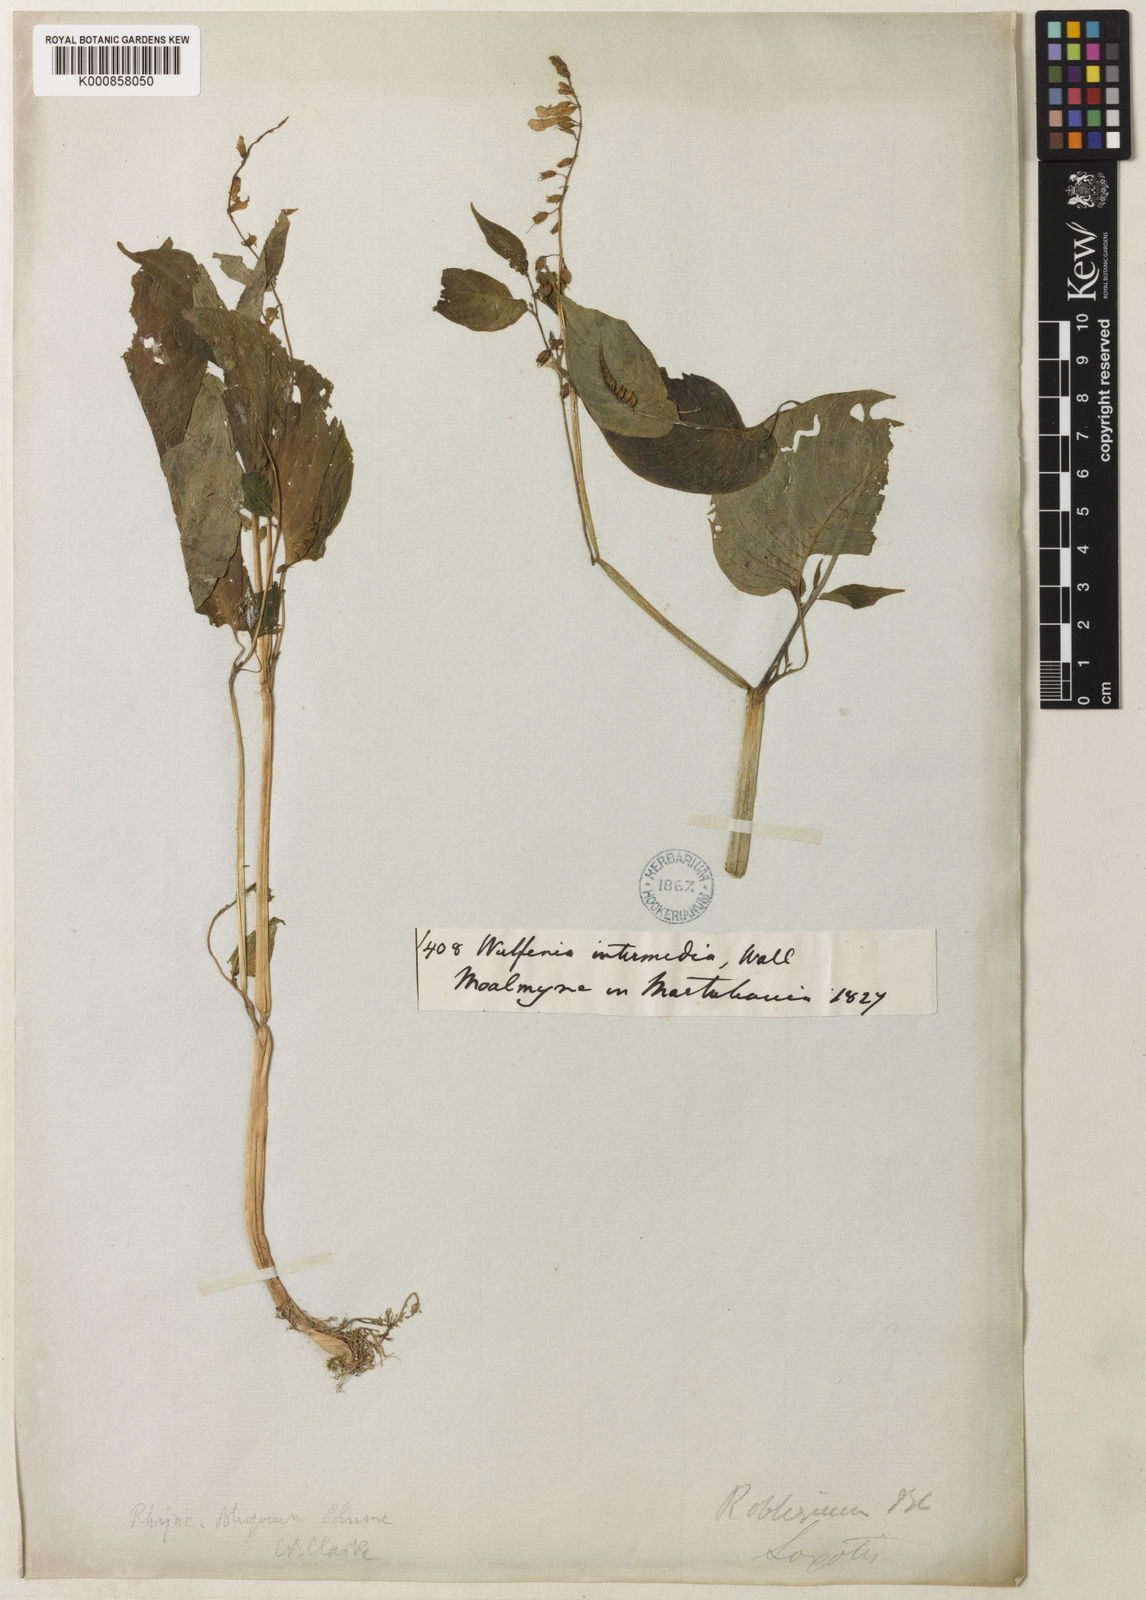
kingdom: Plantae
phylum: Tracheophyta
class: Magnoliopsida
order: Lamiales
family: Gesneriaceae
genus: Rhynchoglossum
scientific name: Rhynchoglossum obliquum
